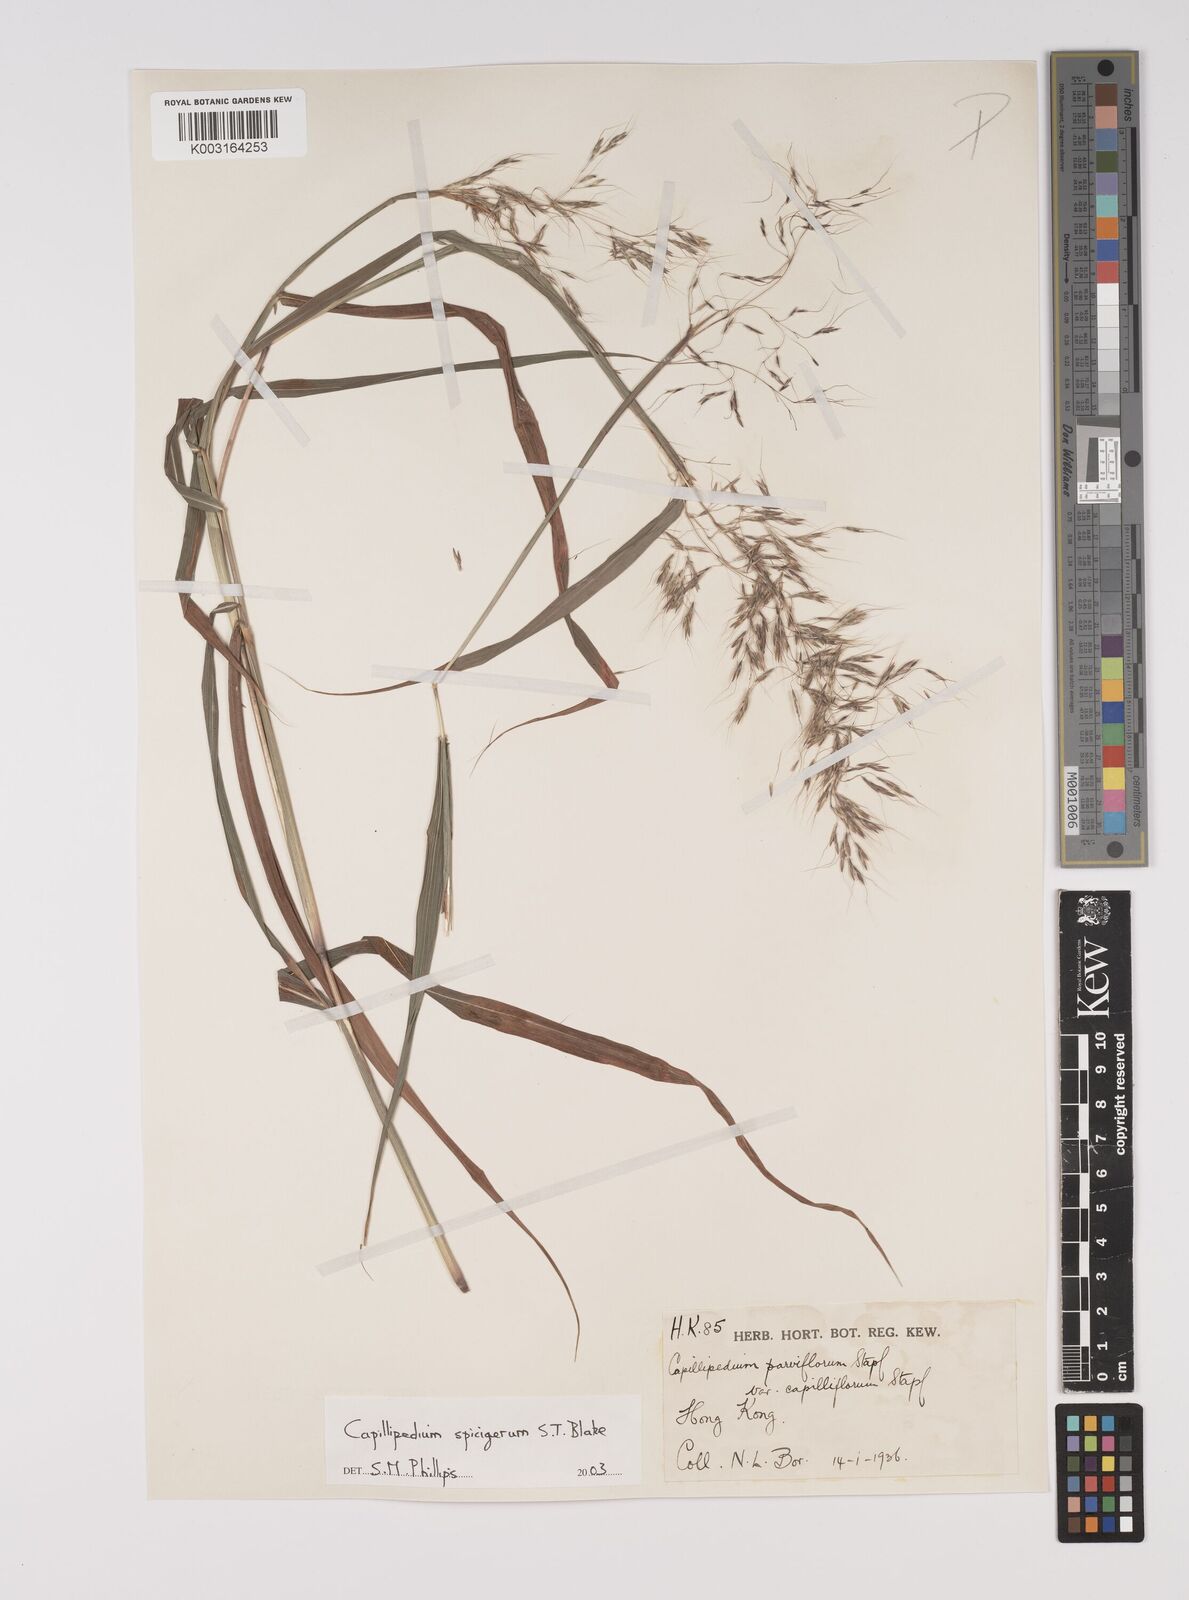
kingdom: Plantae
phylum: Tracheophyta
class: Liliopsida
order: Poales
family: Poaceae
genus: Capillipedium
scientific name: Capillipedium spicigerum
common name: Scented-top grass
